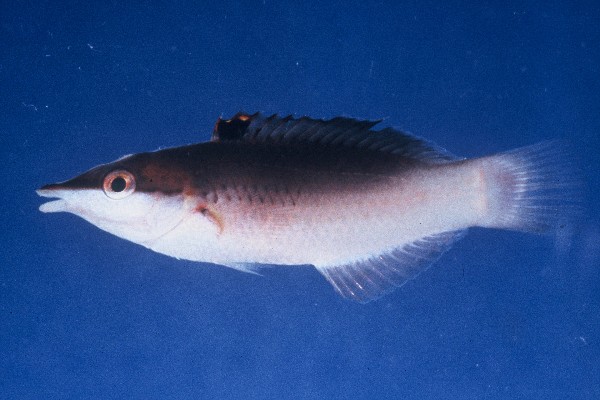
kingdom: Animalia
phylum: Chordata
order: Perciformes
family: Labridae
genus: Gomphosus
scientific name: Gomphosus caeruleus
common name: Bird wrasse
